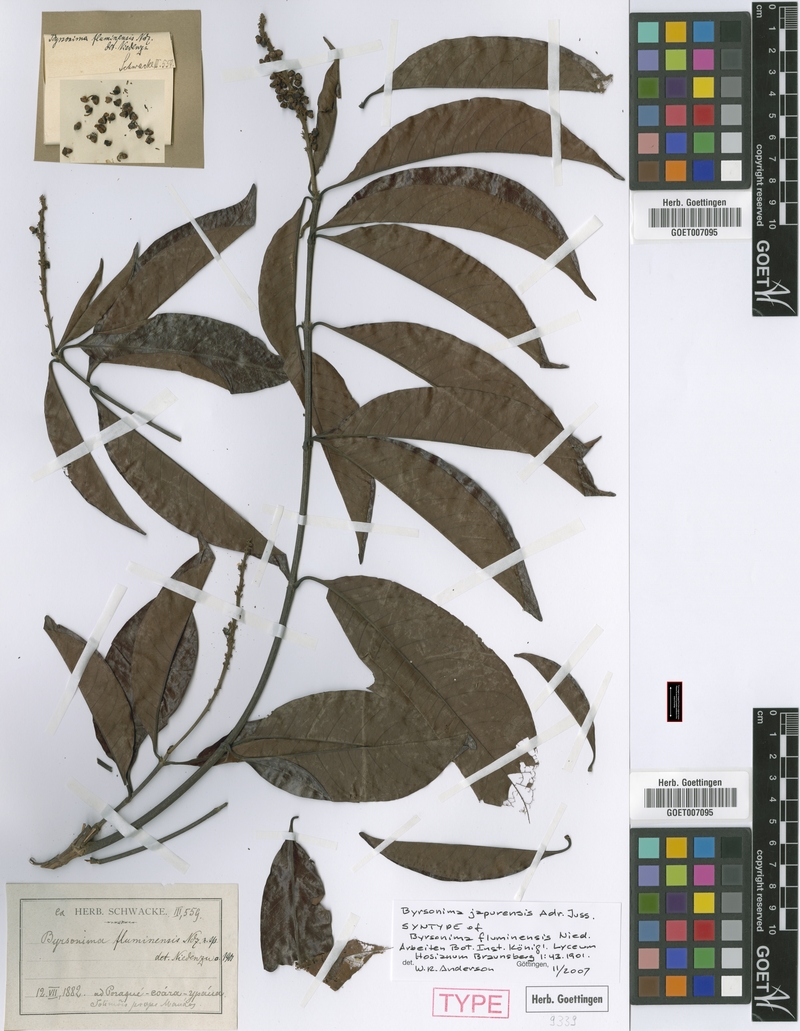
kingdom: Plantae
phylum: Tracheophyta
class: Magnoliopsida
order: Malpighiales
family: Malpighiaceae
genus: Byrsonima
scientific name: Byrsonima japurensis
